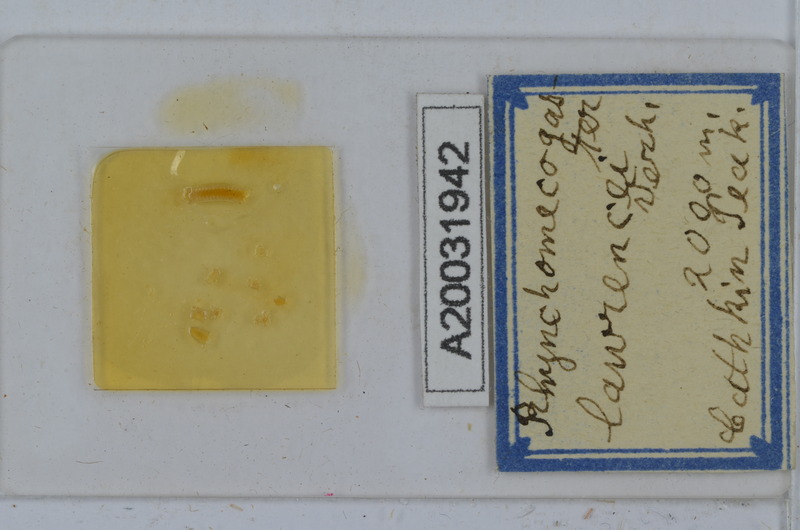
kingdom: Animalia
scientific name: Animalia
